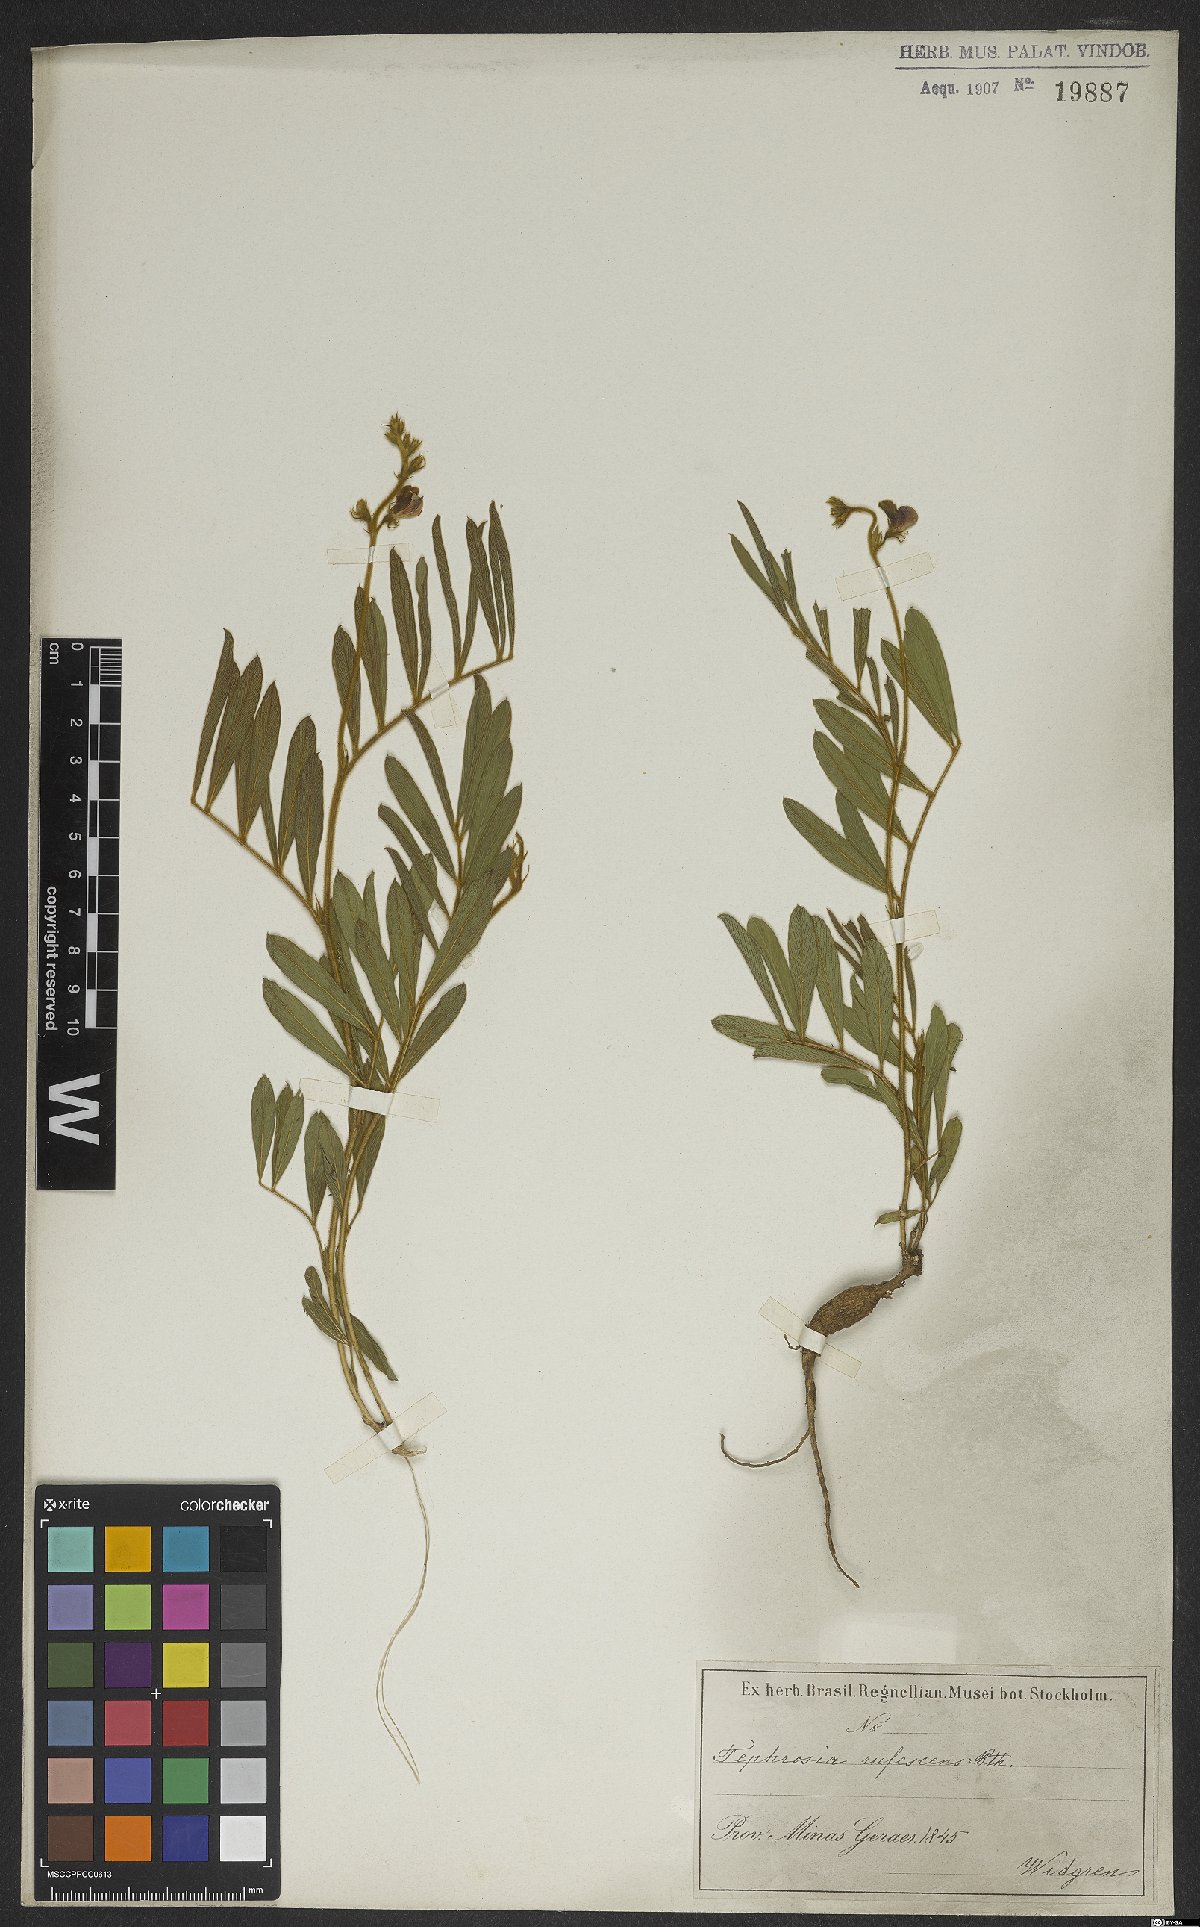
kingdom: Plantae
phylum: Tracheophyta
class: Magnoliopsida
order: Fabales
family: Fabaceae
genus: Tephrosia
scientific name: Tephrosia adunca
